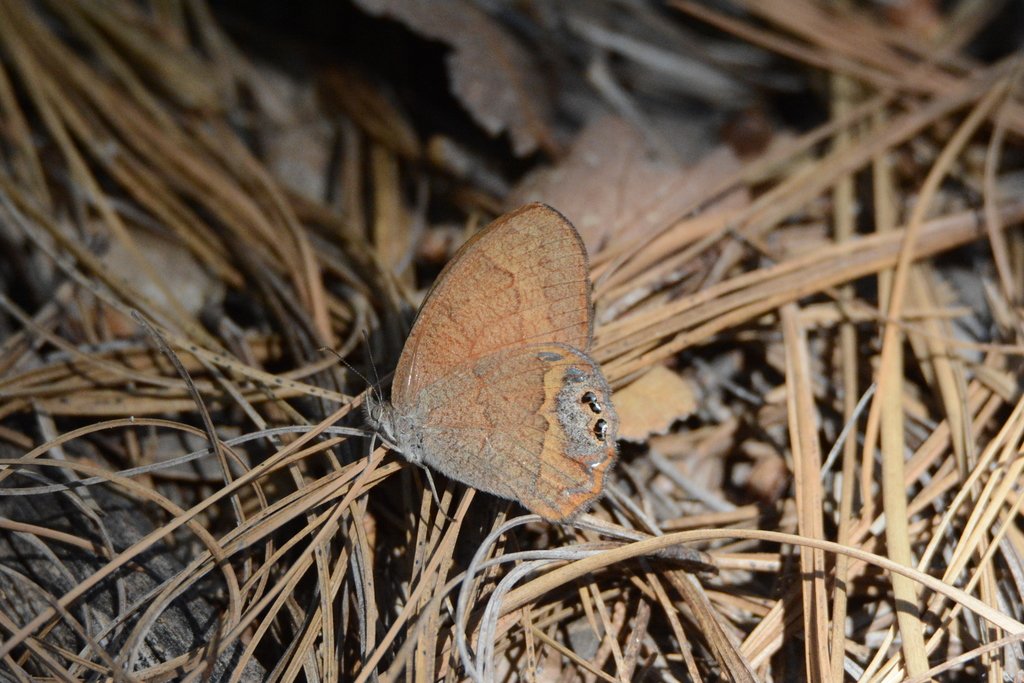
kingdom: Animalia
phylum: Arthropoda
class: Insecta
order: Lepidoptera
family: Nymphalidae
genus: Euptychia
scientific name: Euptychia pyracmon
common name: Nabokov's Satyr
